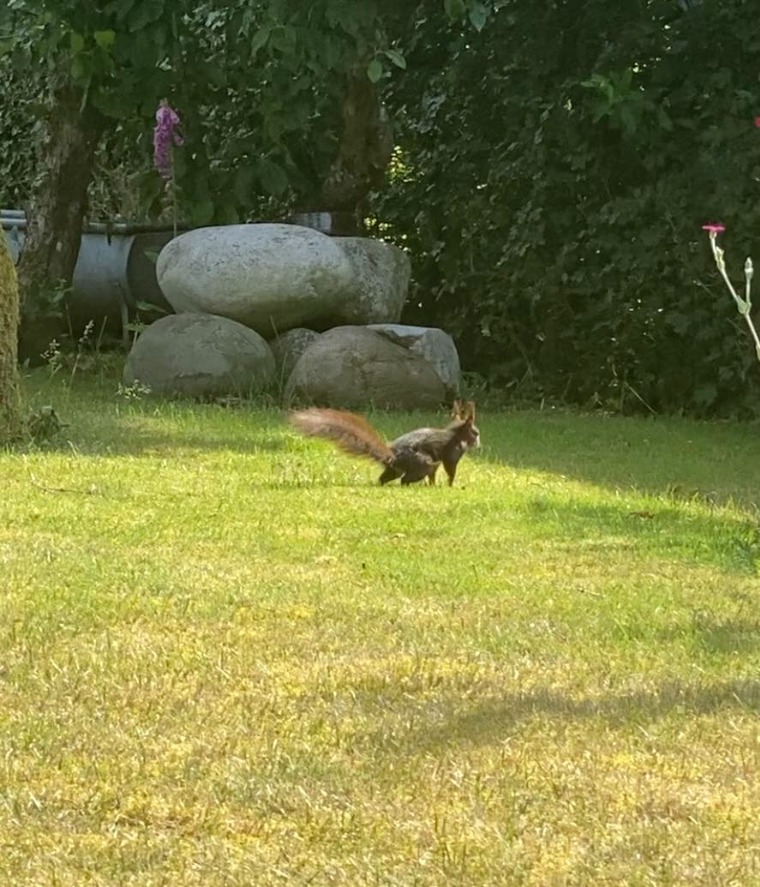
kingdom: Animalia
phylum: Chordata
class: Mammalia
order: Rodentia
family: Sciuridae
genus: Sciurus
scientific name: Sciurus vulgaris
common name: Egern
